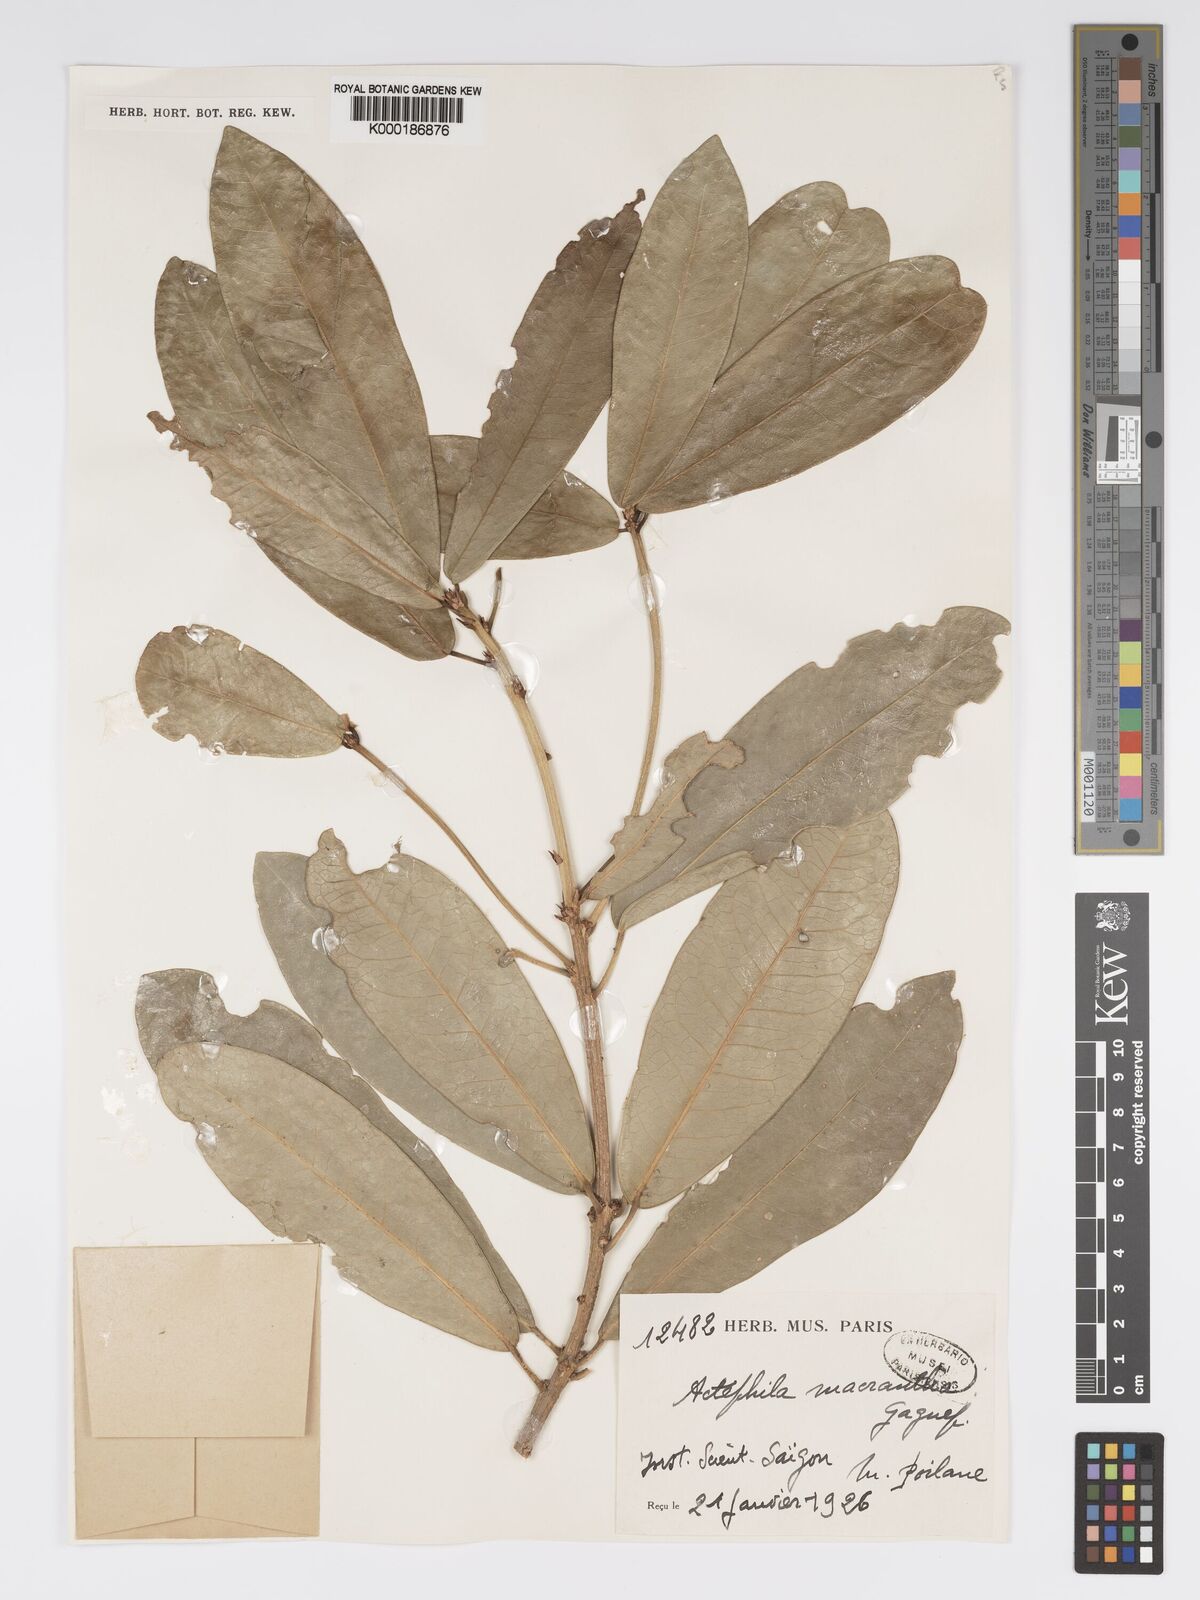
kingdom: Plantae
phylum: Tracheophyta
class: Magnoliopsida
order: Malpighiales
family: Phyllanthaceae
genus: Actephila
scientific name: Actephila macrantha
